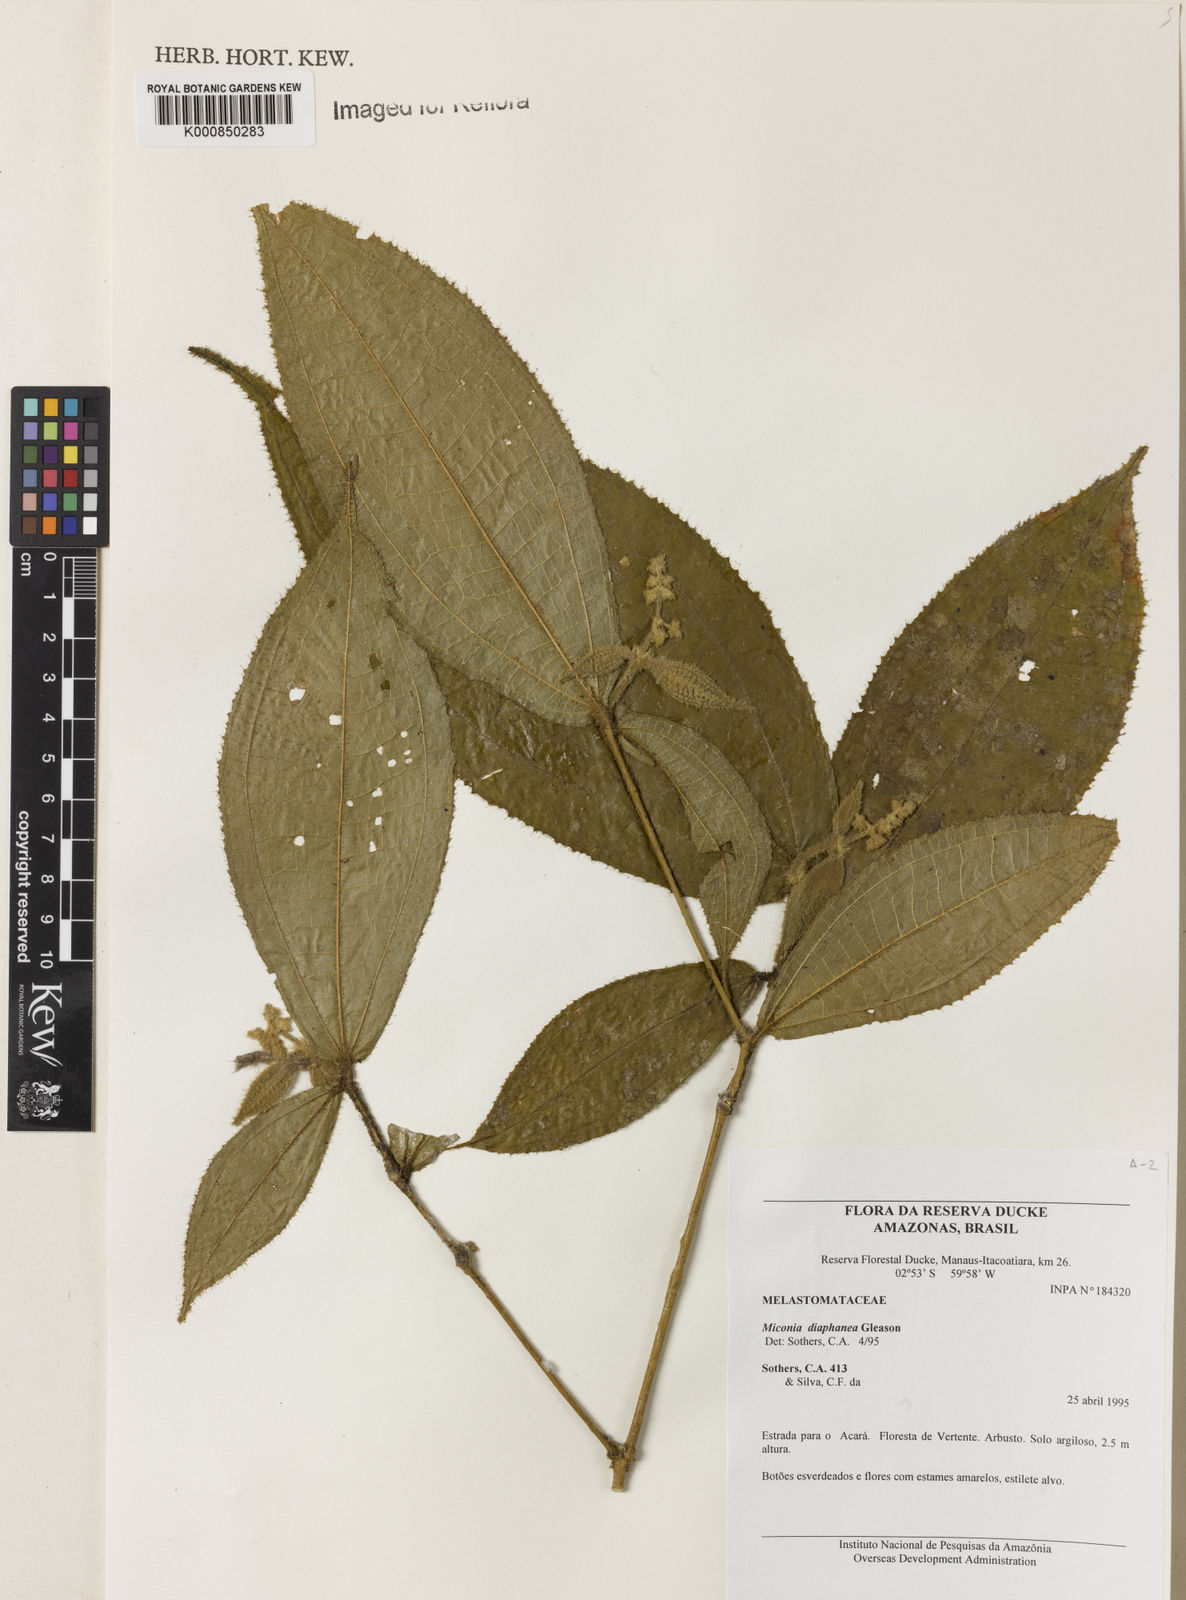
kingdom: Plantae
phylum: Tracheophyta
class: Magnoliopsida
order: Myrtales
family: Melastomataceae
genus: Miconia
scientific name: Miconia diaphanea
